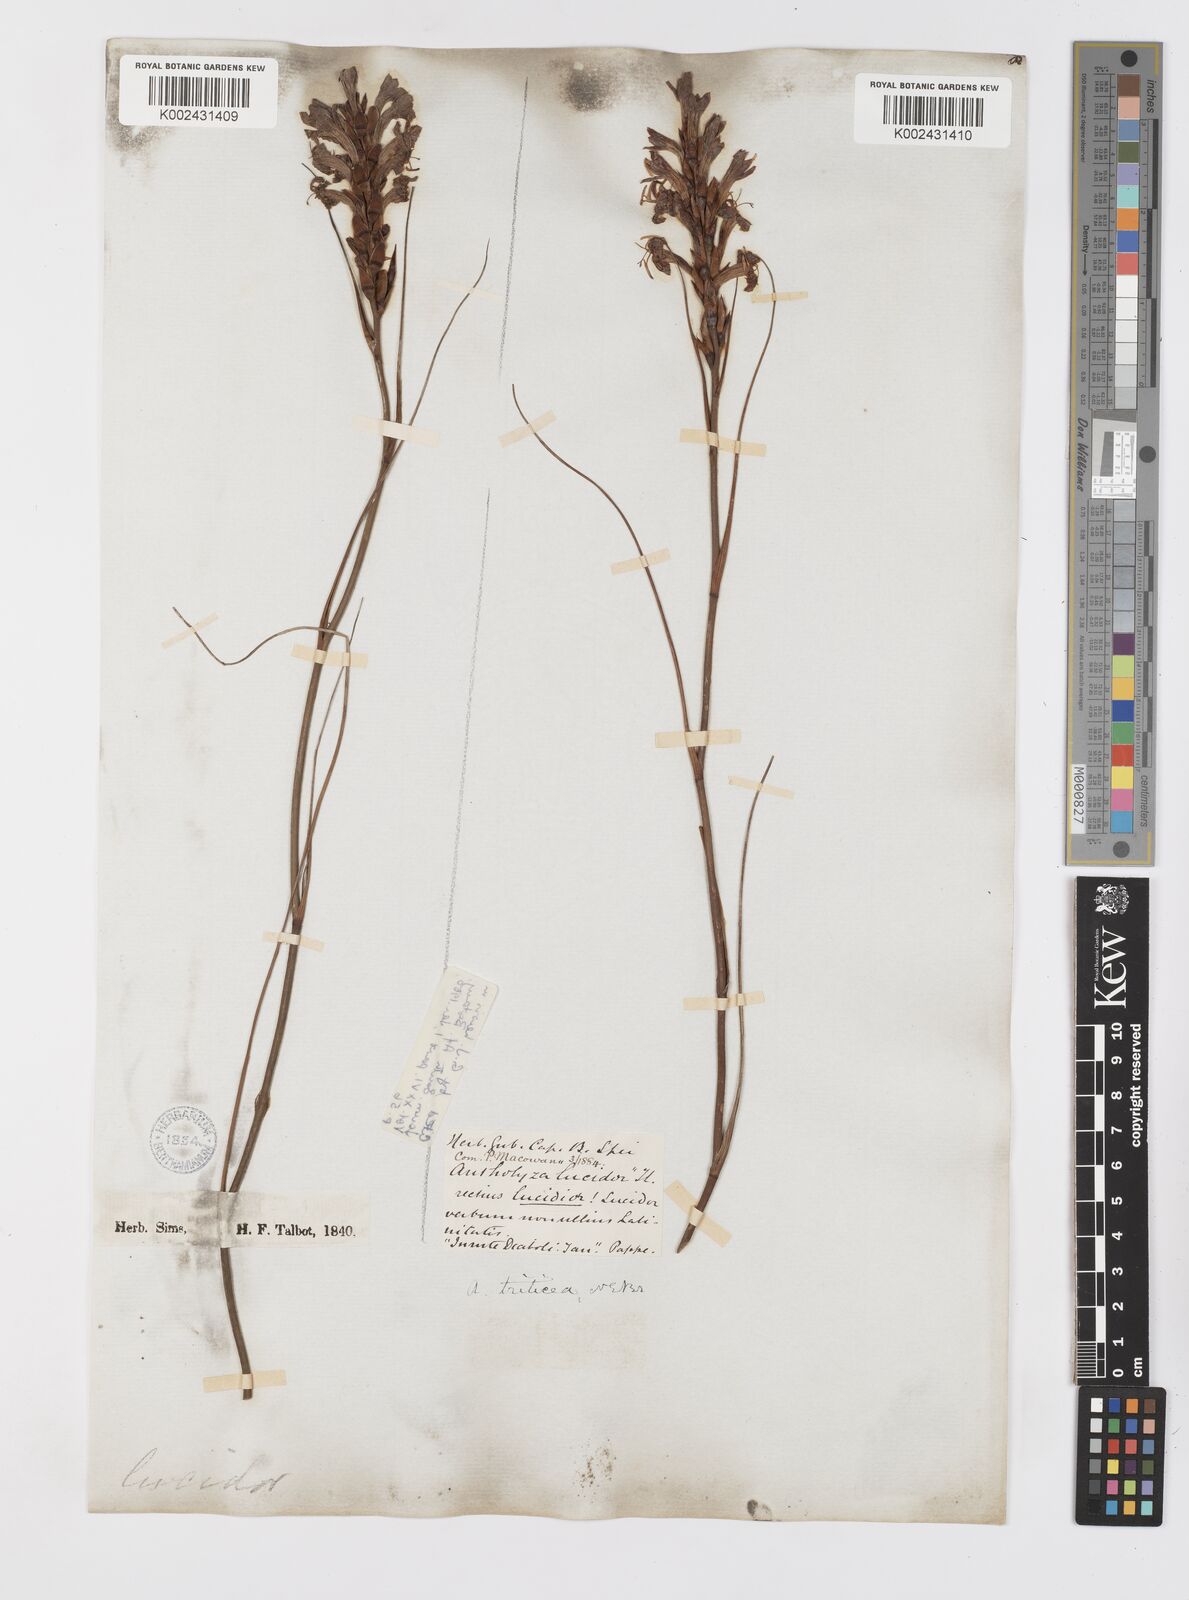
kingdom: Plantae
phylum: Tracheophyta
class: Liliopsida
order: Asparagales
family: Iridaceae
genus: Tritoniopsis
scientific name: Tritoniopsis triticea
